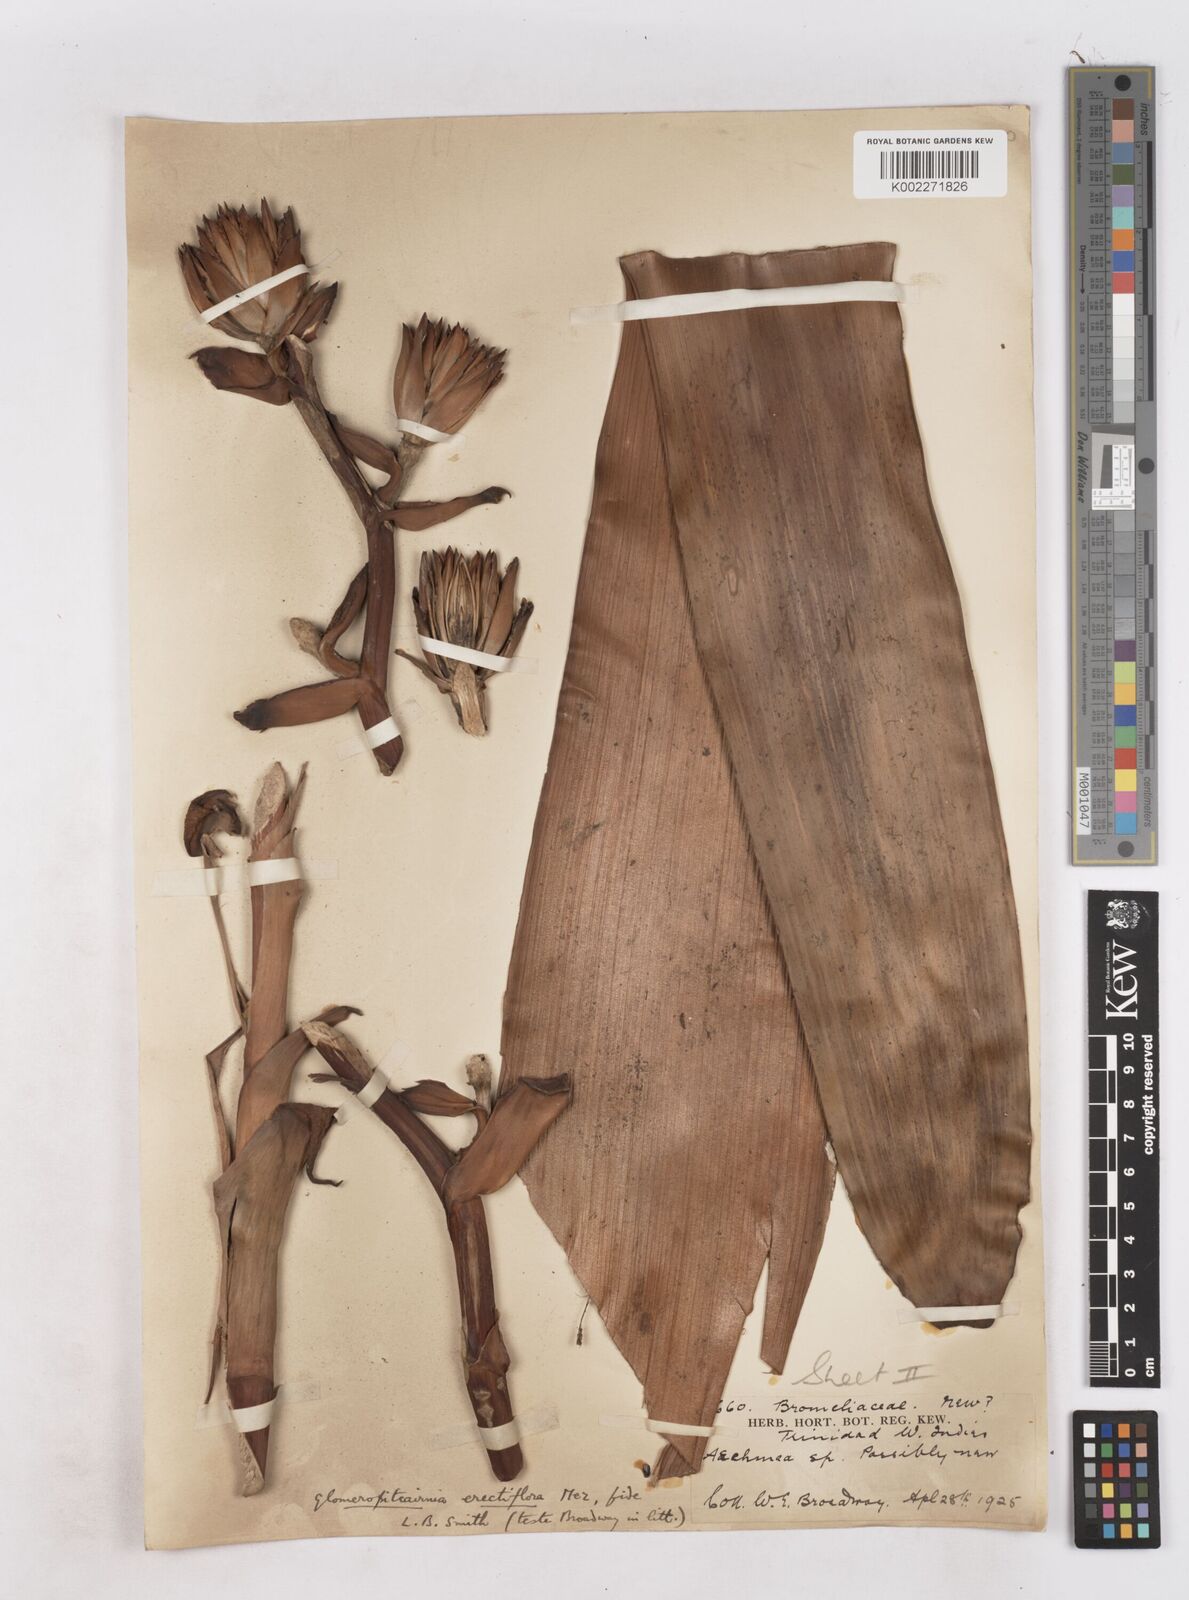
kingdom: Plantae
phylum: Tracheophyta
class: Liliopsida
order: Poales
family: Bromeliaceae
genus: Glomeropitcairnia
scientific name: Glomeropitcairnia erectiflora
